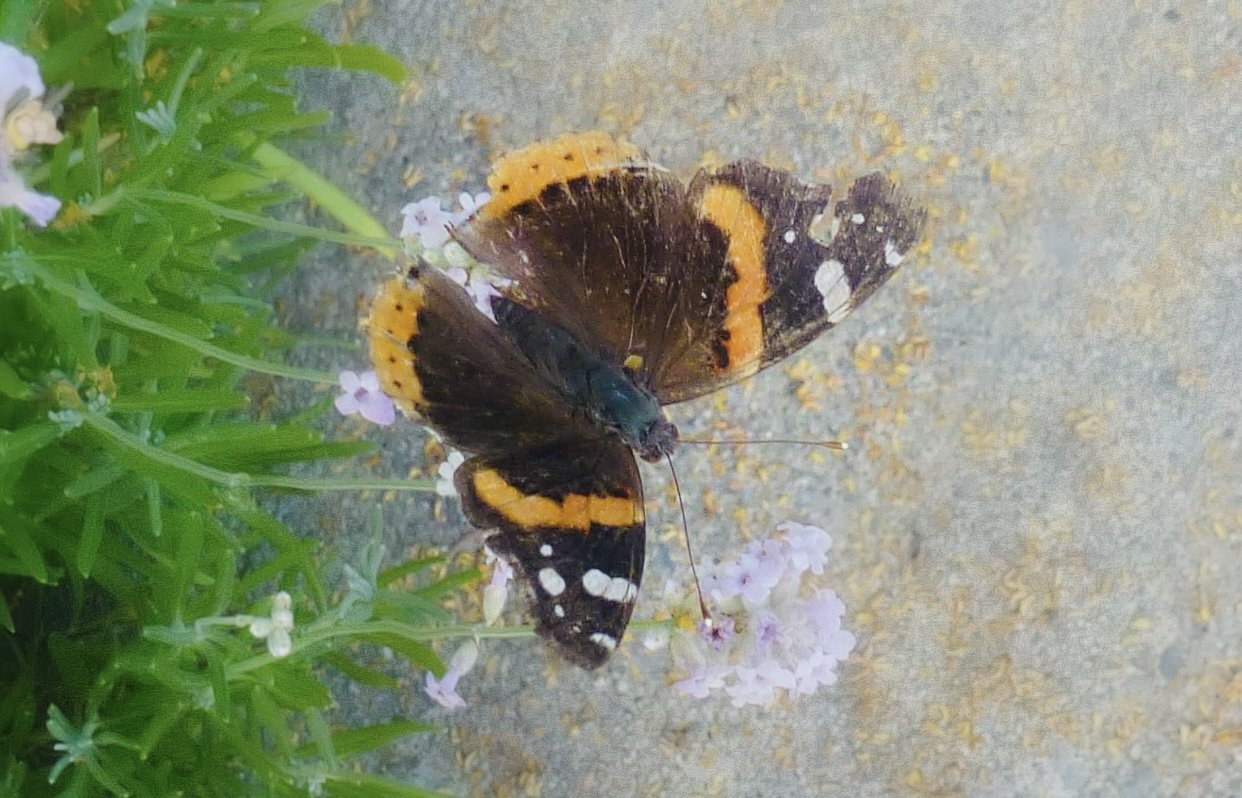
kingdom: Animalia
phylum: Arthropoda
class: Insecta
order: Lepidoptera
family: Nymphalidae
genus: Vanessa
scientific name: Vanessa atalanta
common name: Red Admiral
